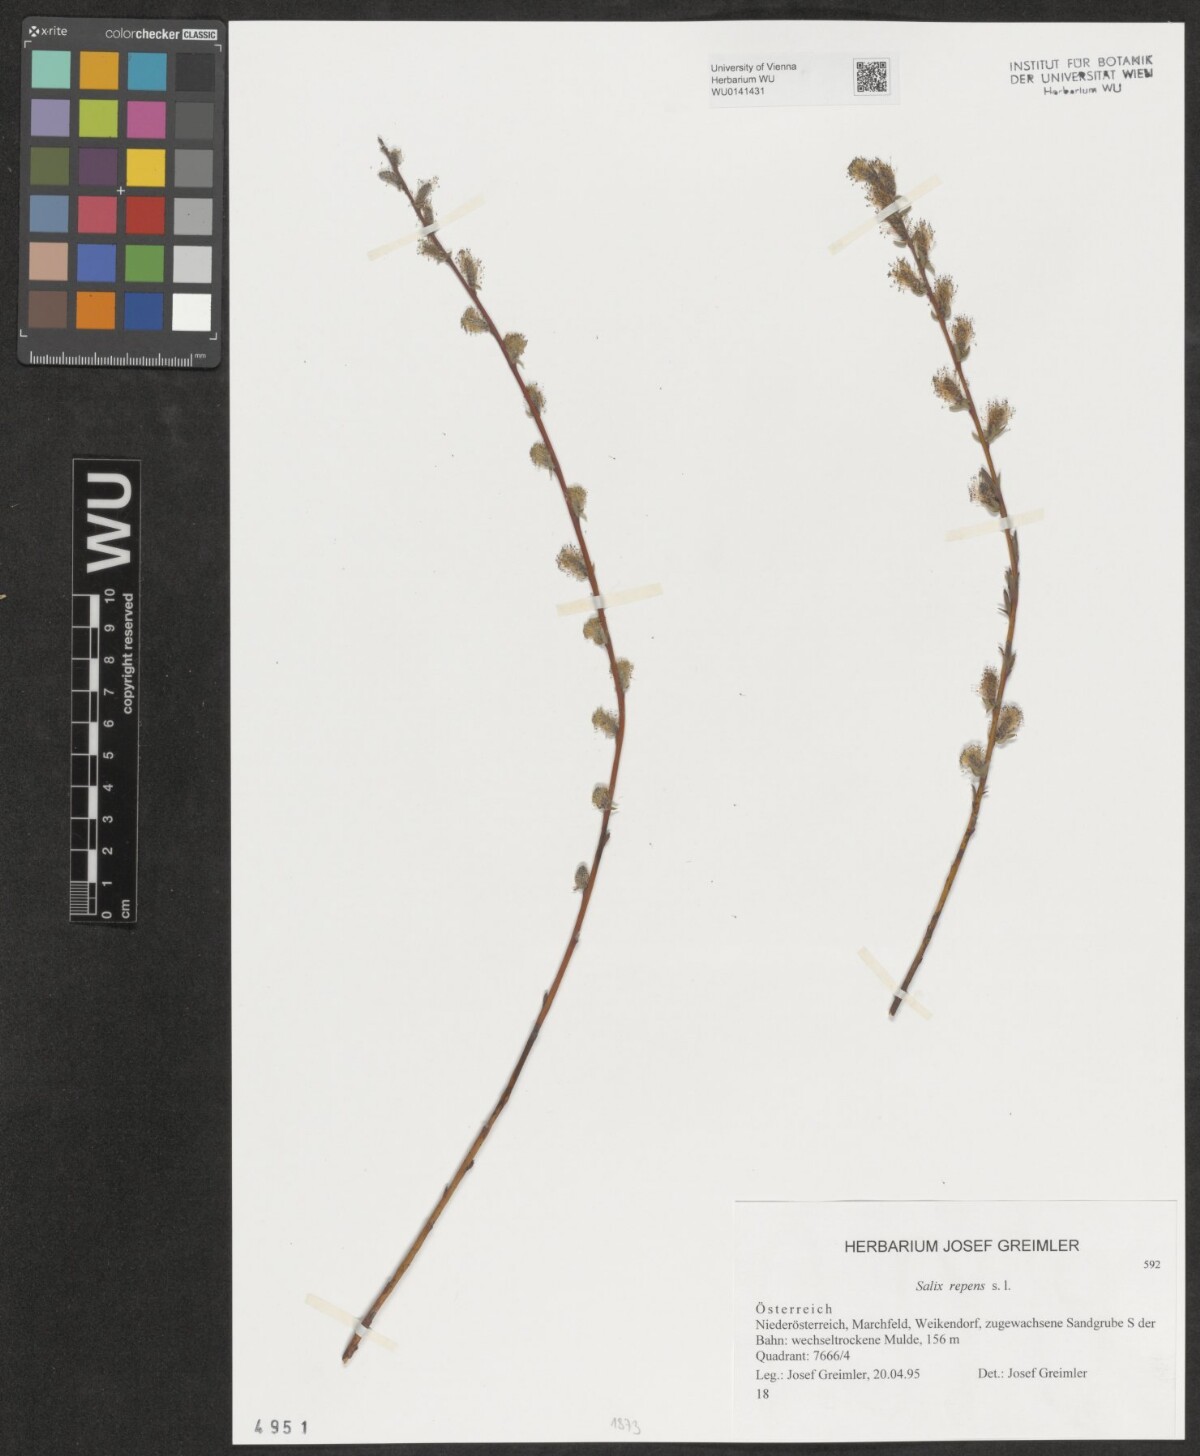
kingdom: Plantae
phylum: Tracheophyta
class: Magnoliopsida
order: Malpighiales
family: Salicaceae
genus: Salix
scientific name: Salix repens
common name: Creeping willow
